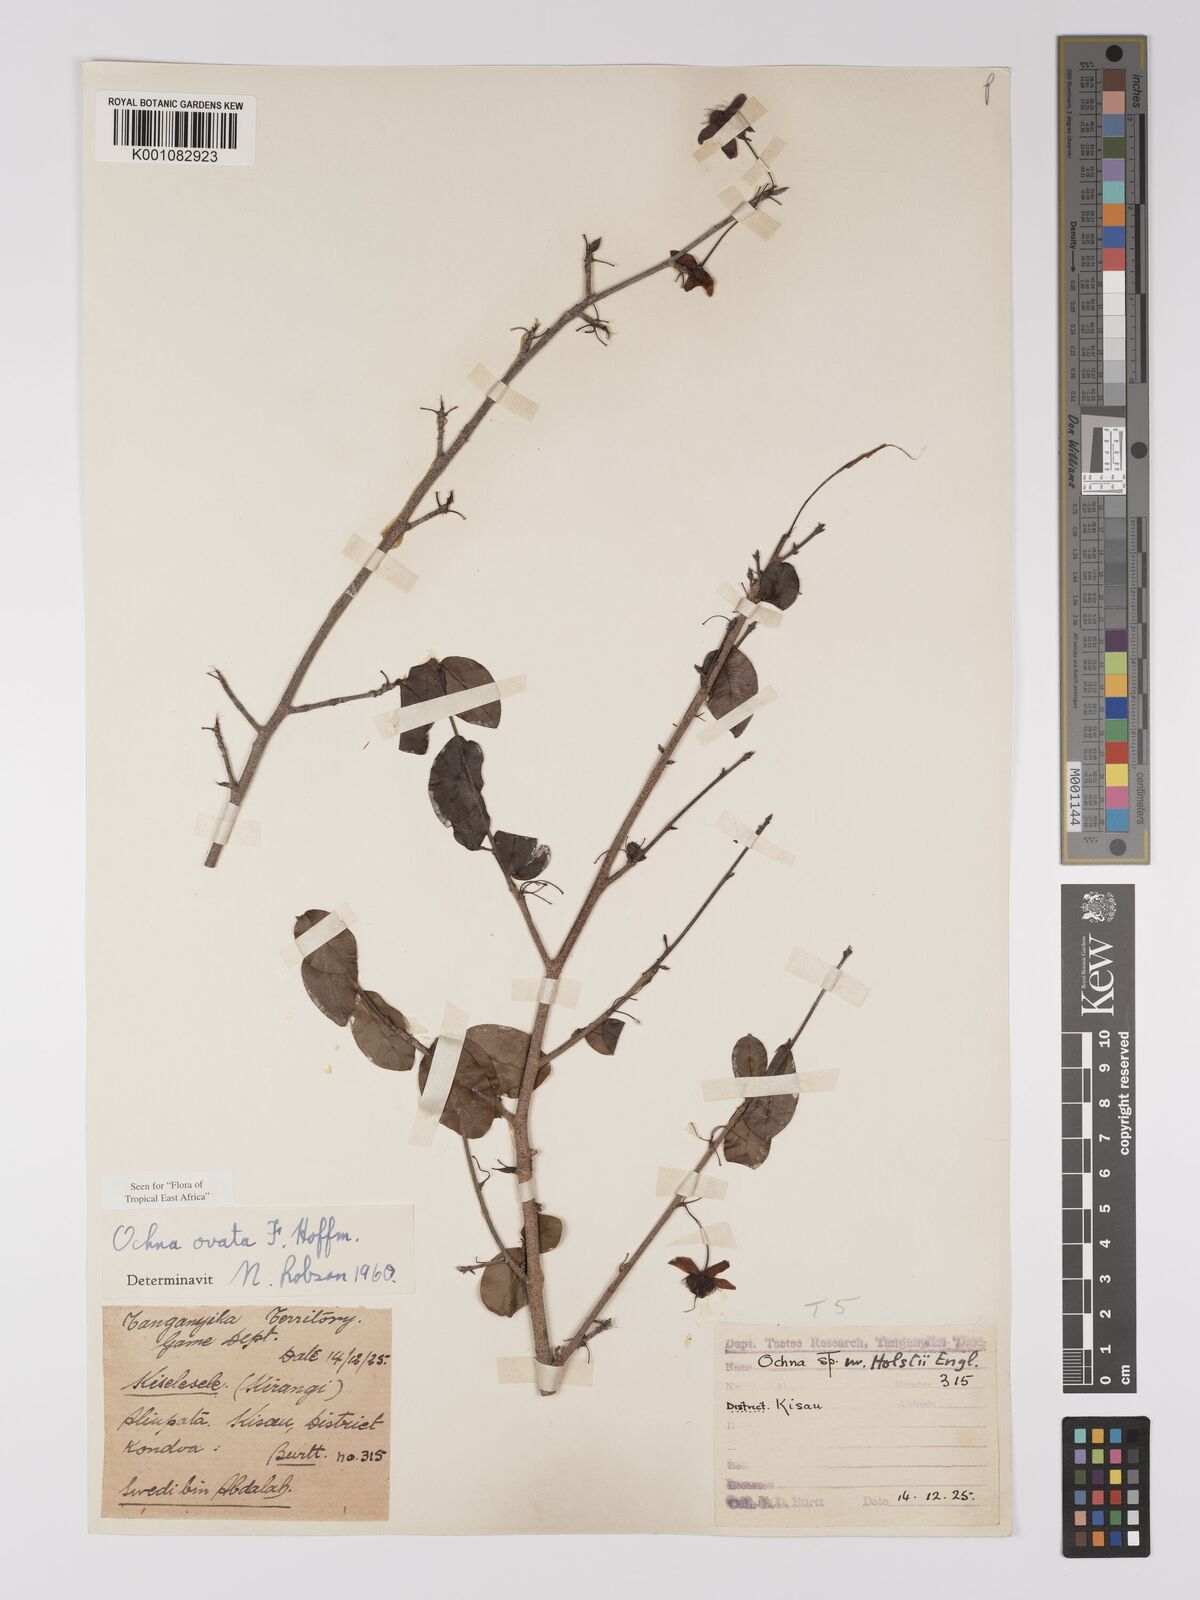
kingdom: Plantae
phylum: Tracheophyta
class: Magnoliopsida
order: Malpighiales
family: Ochnaceae
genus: Ochna
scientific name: Ochna ovata
